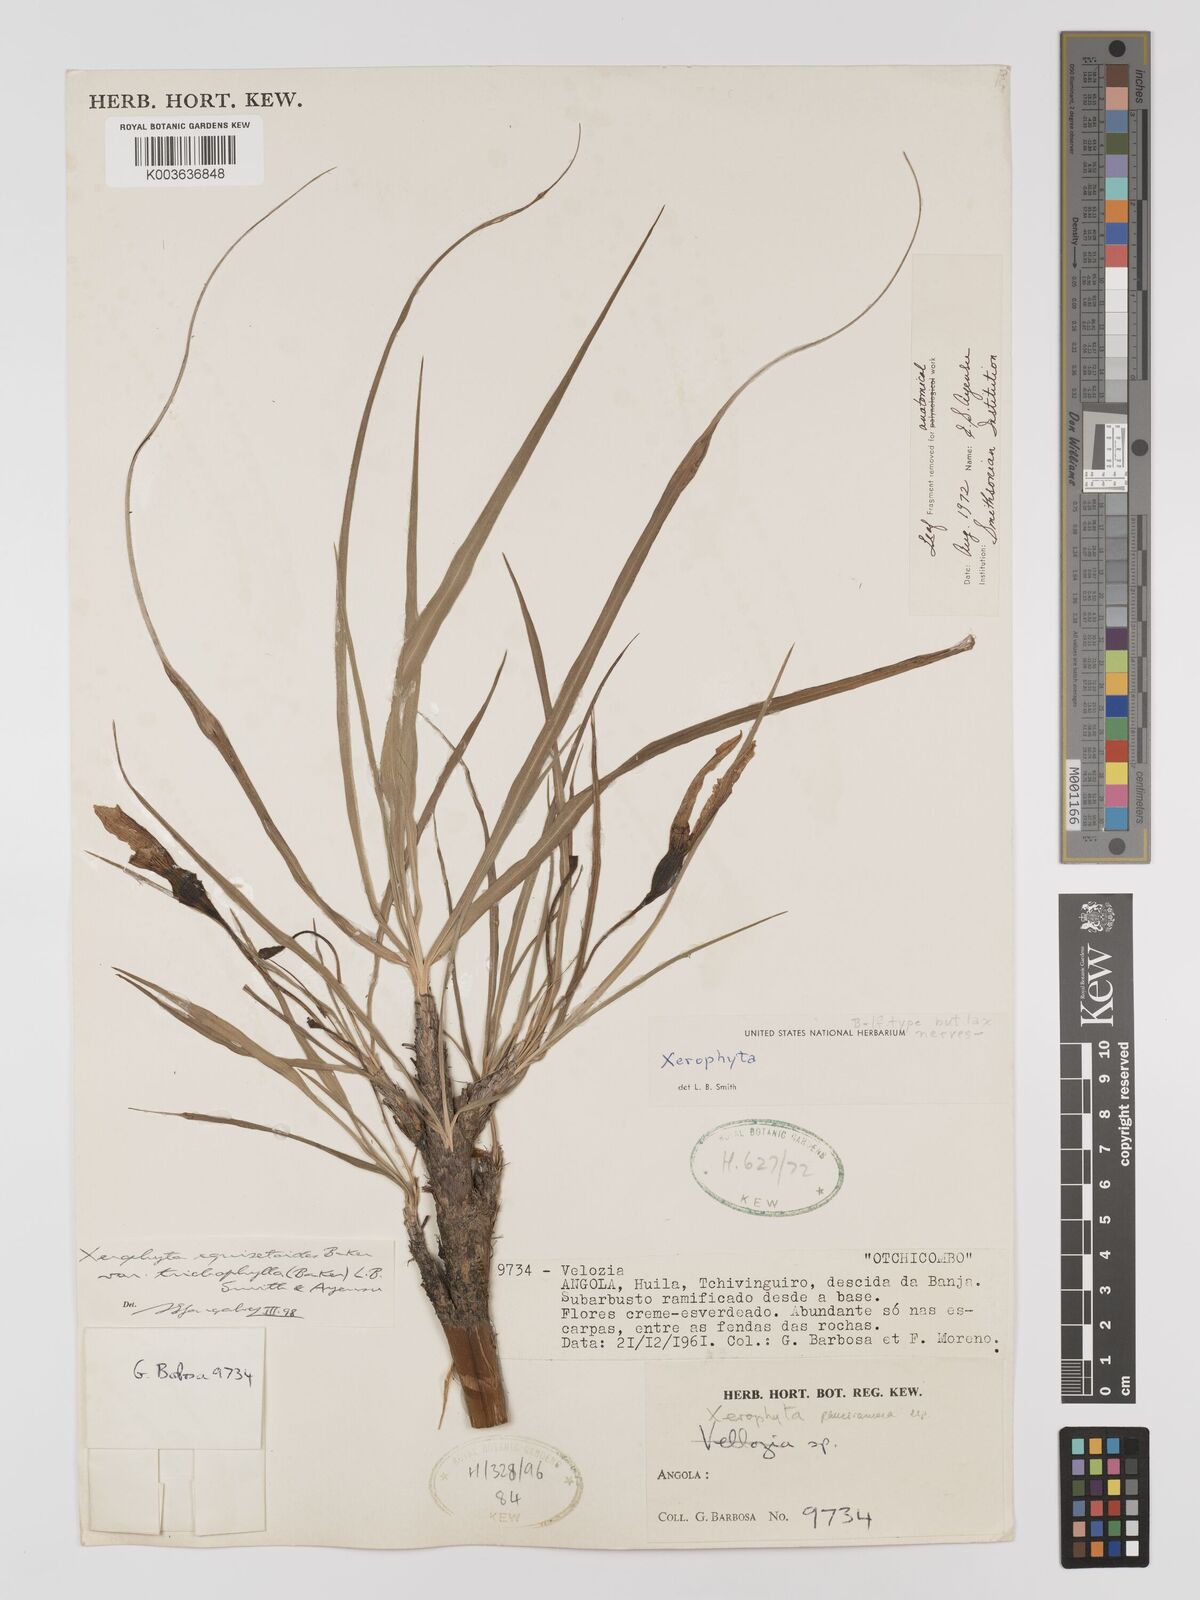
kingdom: Plantae
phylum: Tracheophyta
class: Liliopsida
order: Pandanales
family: Velloziaceae
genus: Xerophyta
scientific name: Xerophyta trichophylla
